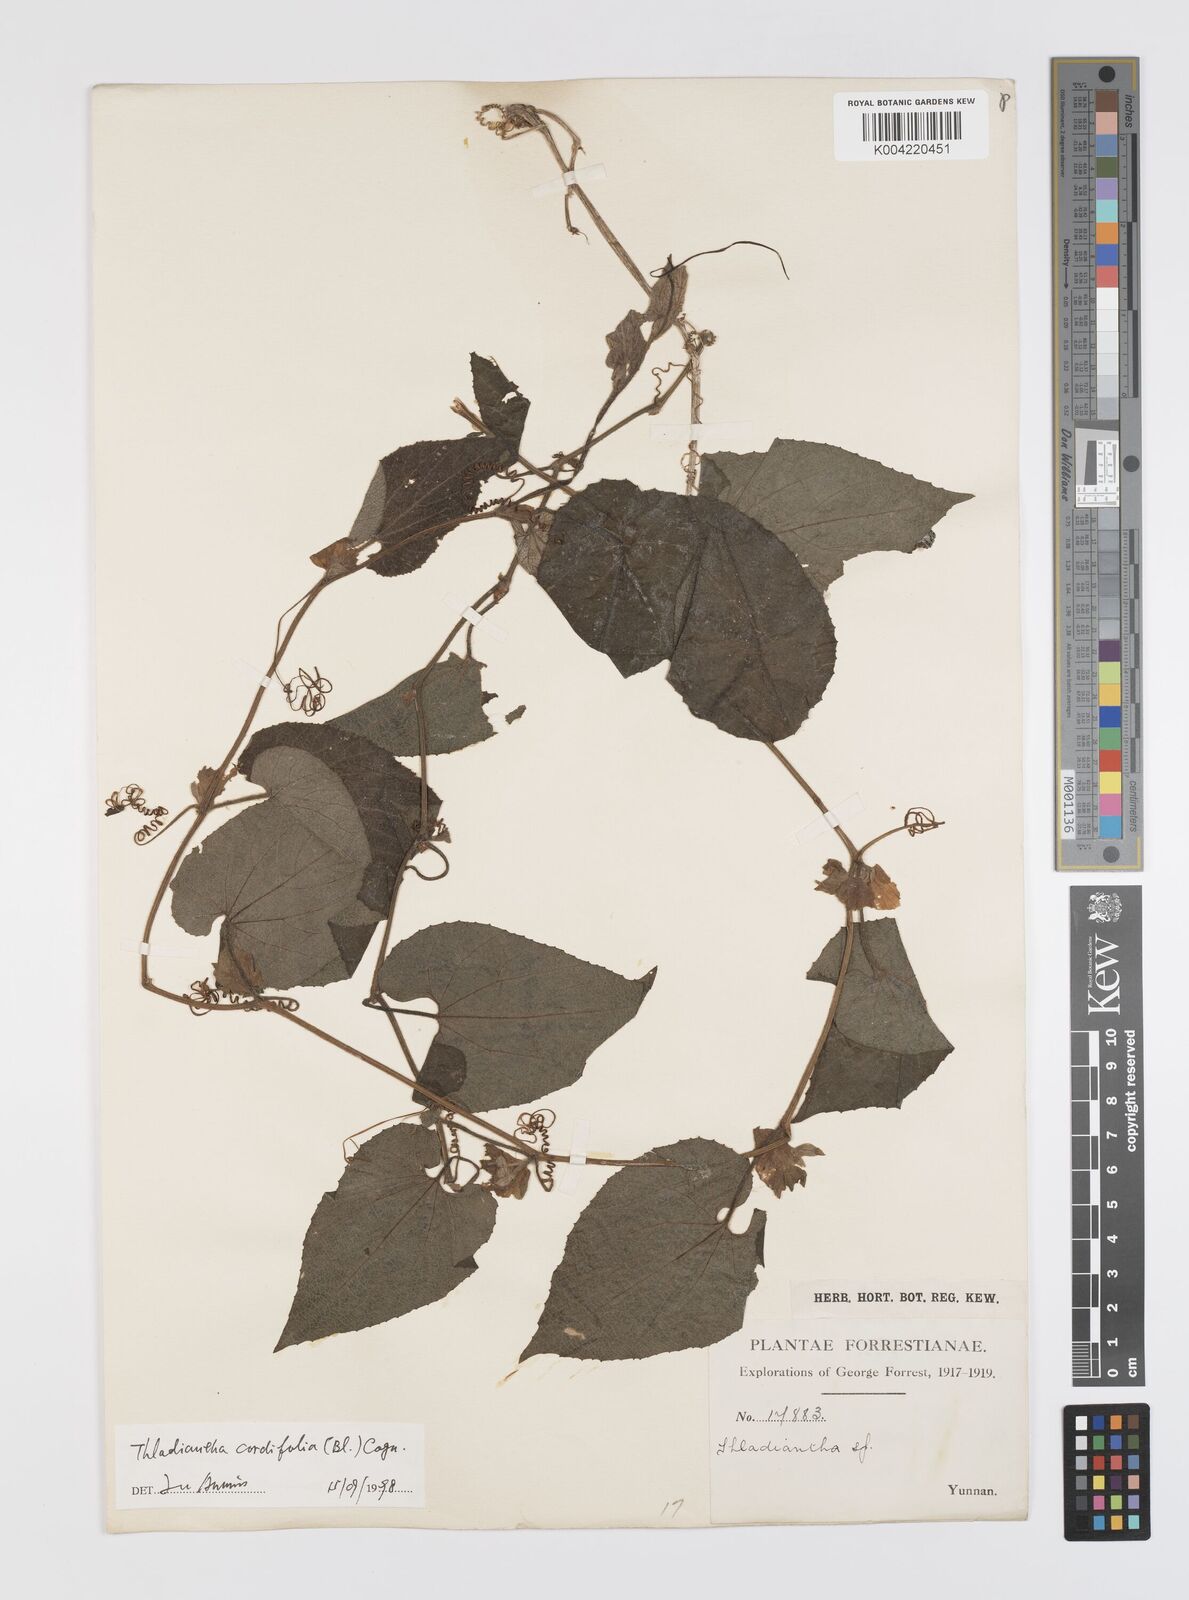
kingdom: Plantae
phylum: Tracheophyta
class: Magnoliopsida
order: Cucurbitales
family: Cucurbitaceae
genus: Thladiantha
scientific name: Thladiantha cordifolia
